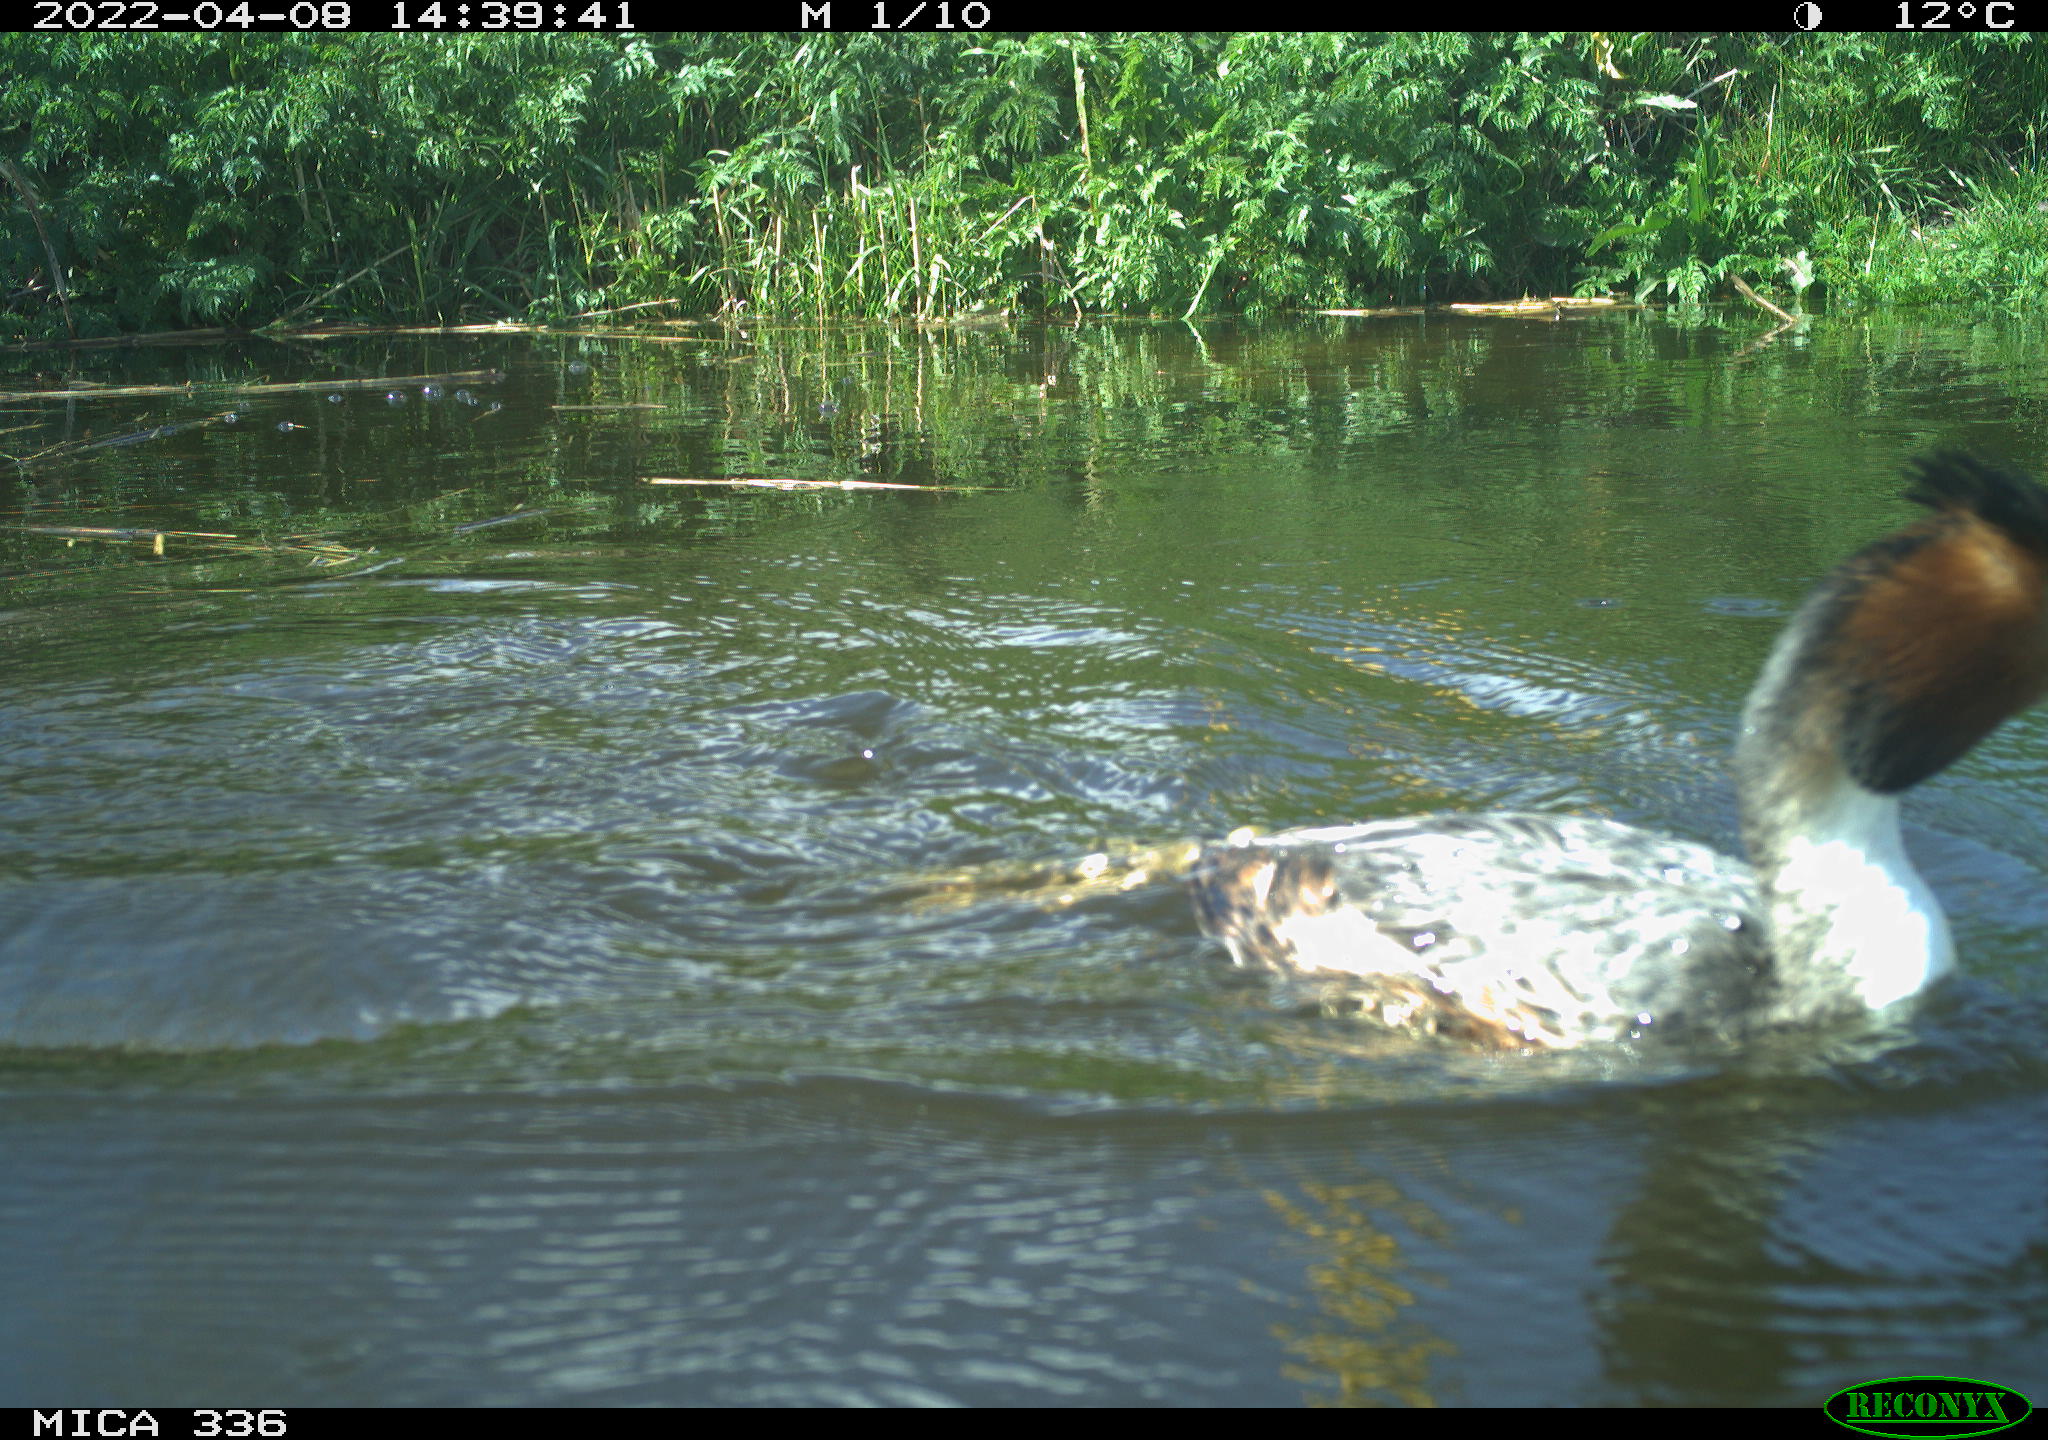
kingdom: Animalia
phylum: Chordata
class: Aves
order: Podicipediformes
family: Podicipedidae
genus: Podiceps
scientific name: Podiceps cristatus
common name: Great crested grebe
